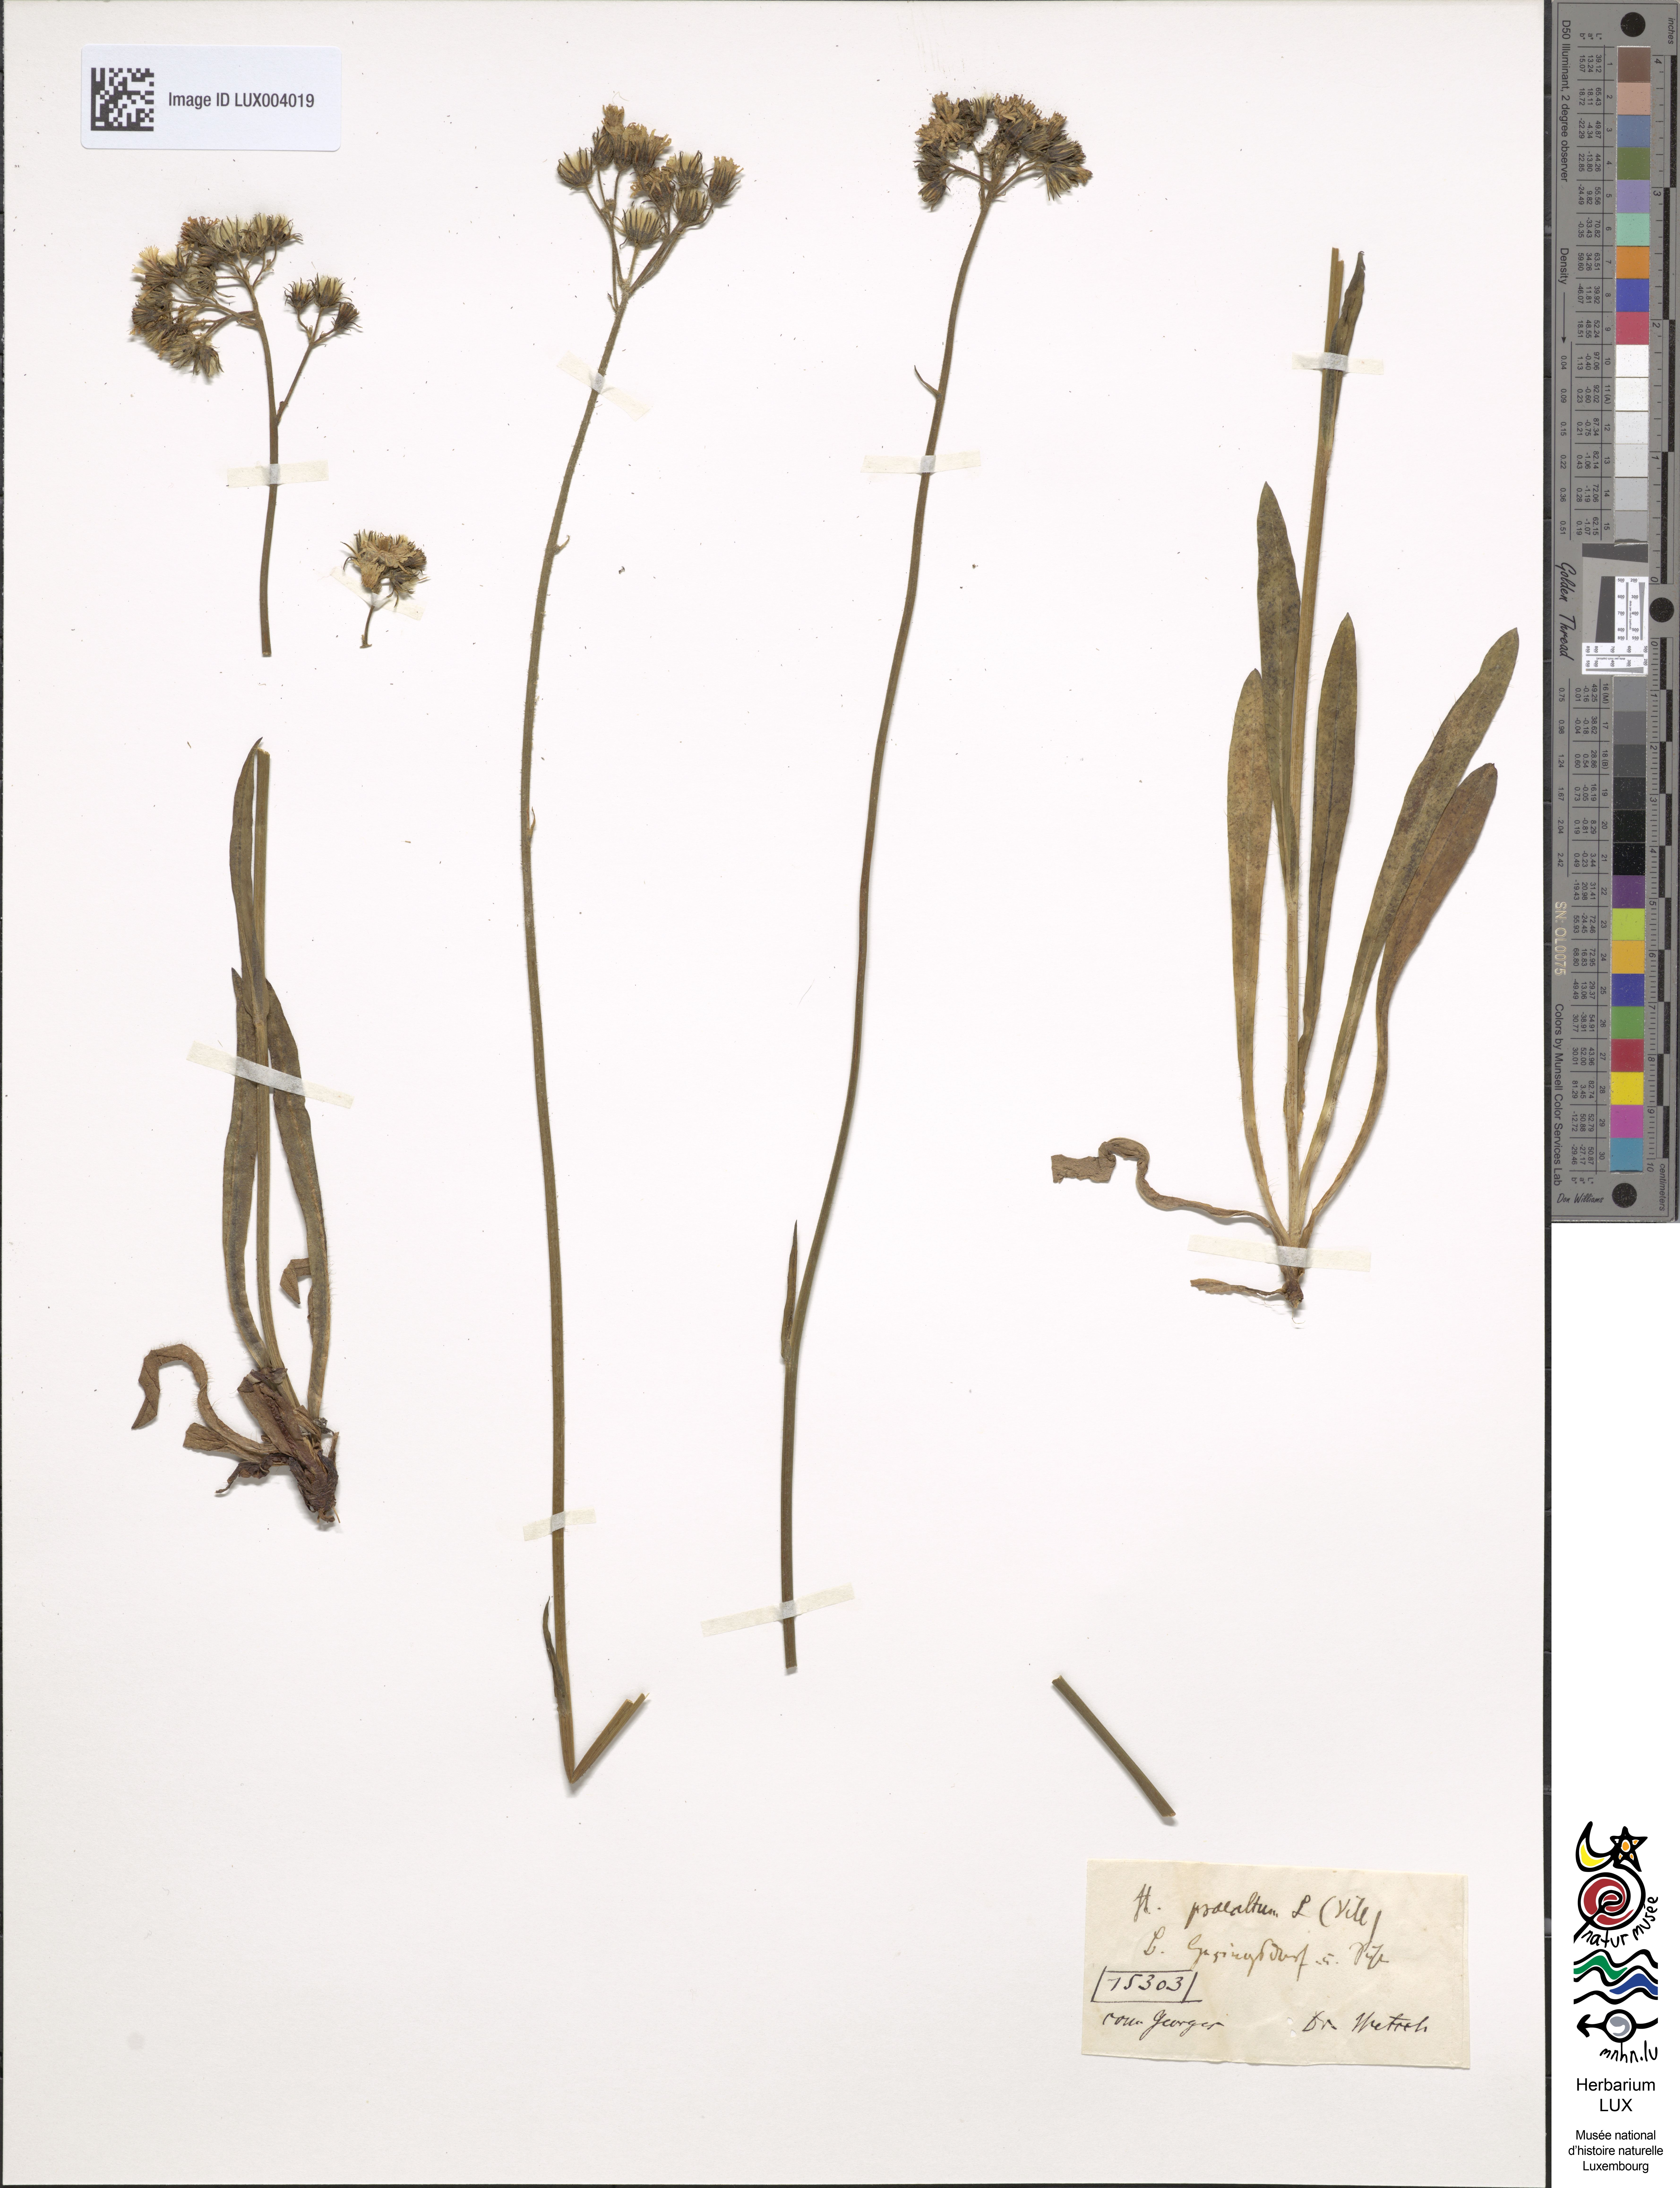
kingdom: Plantae
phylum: Tracheophyta
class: Magnoliopsida
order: Asterales
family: Asteraceae
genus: Pilosella
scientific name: Pilosella piloselloides
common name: Glaucous king-devil
